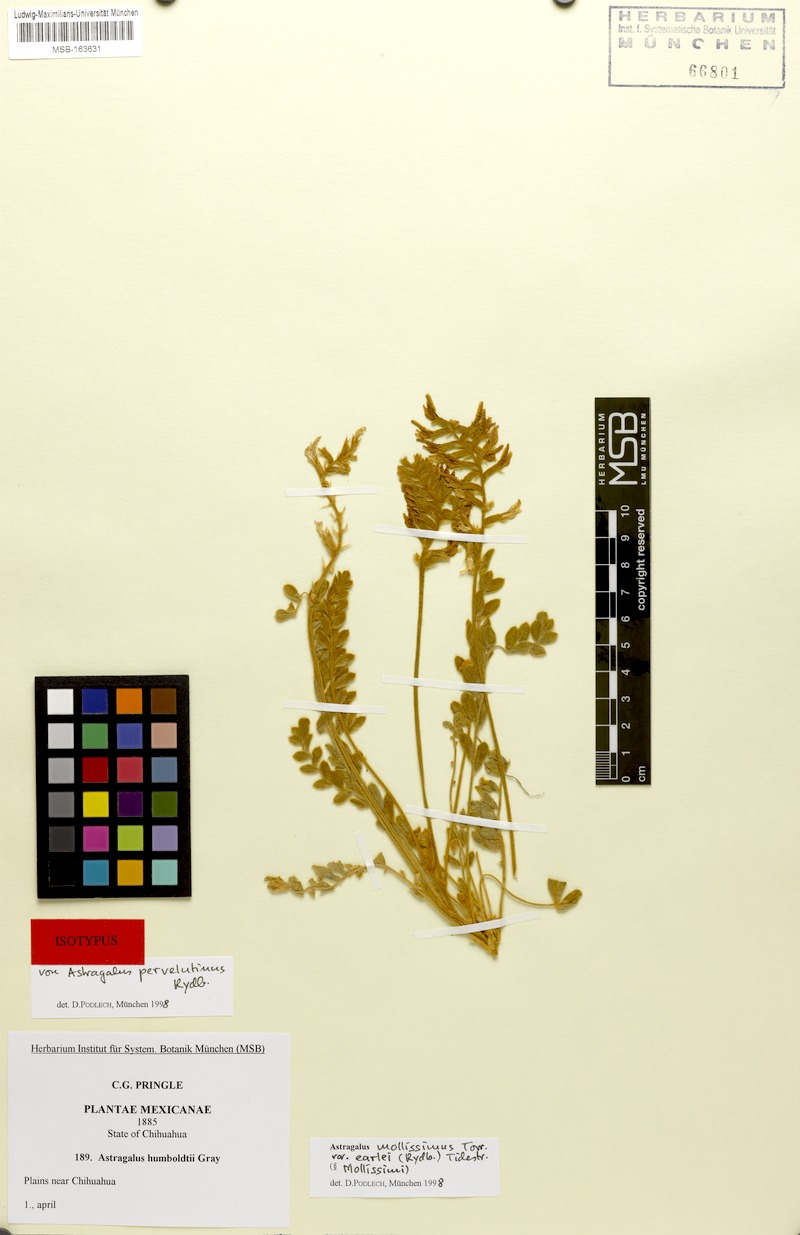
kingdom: Plantae
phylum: Tracheophyta
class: Magnoliopsida
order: Fabales
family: Fabaceae
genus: Astragalus
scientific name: Astragalus mollissimus
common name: Woolly locoweed
